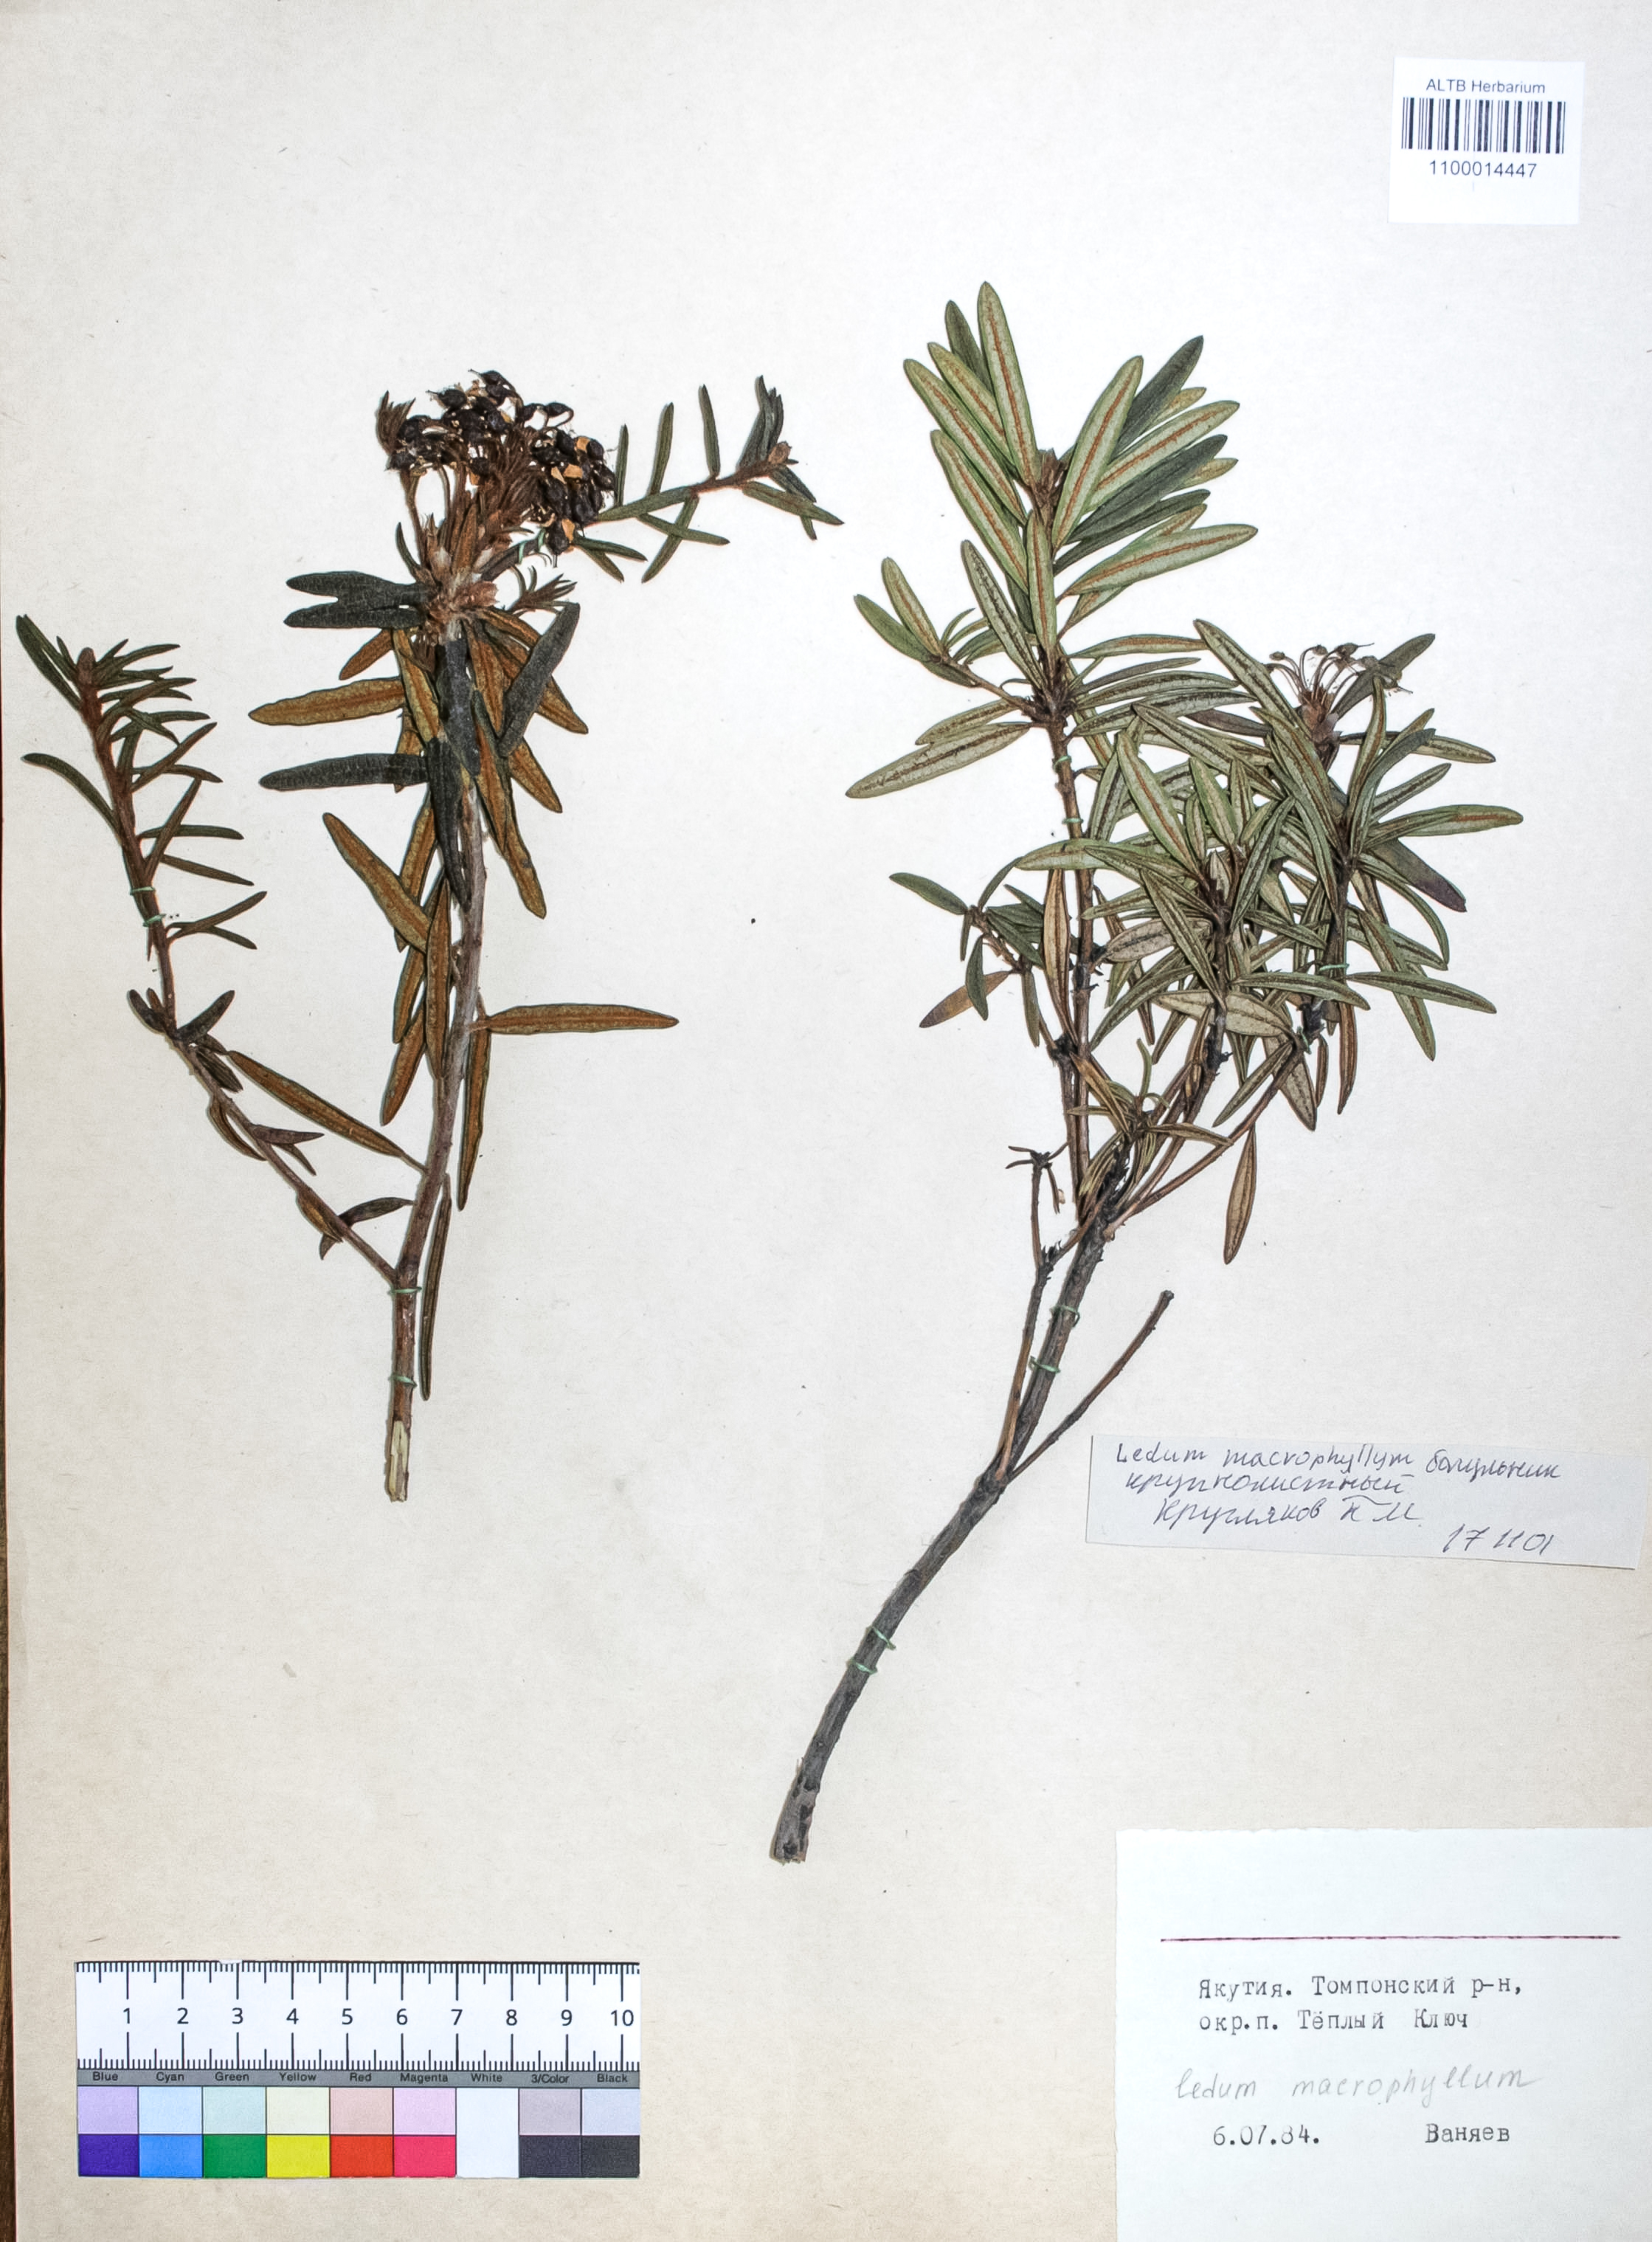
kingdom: Plantae
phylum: Tracheophyta
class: Magnoliopsida
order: Ericales
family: Ericaceae
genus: Rhododendron
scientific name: Rhododendron tolmachevii
